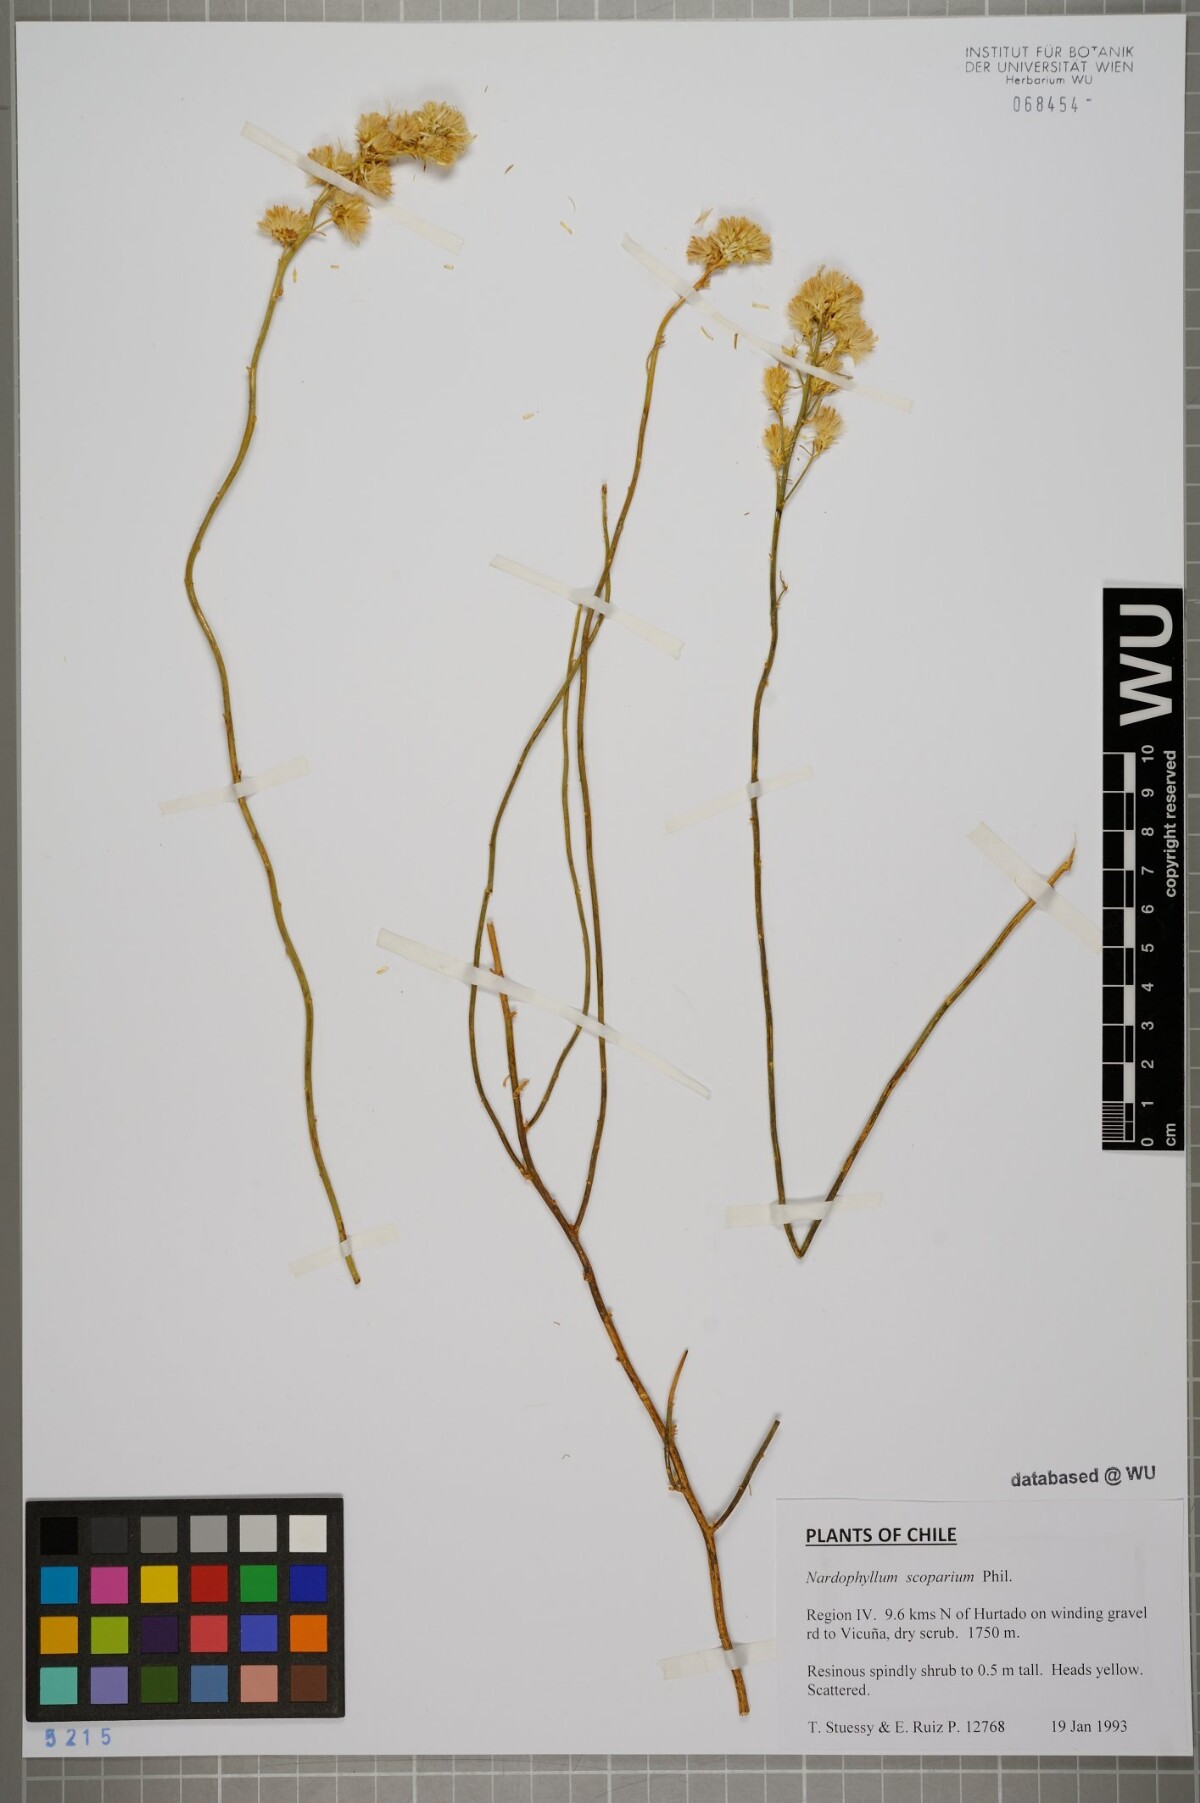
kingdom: Plantae
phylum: Tracheophyta
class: Magnoliopsida
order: Asterales
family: Asteraceae
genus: Nardophyllum
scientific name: Nardophyllum
